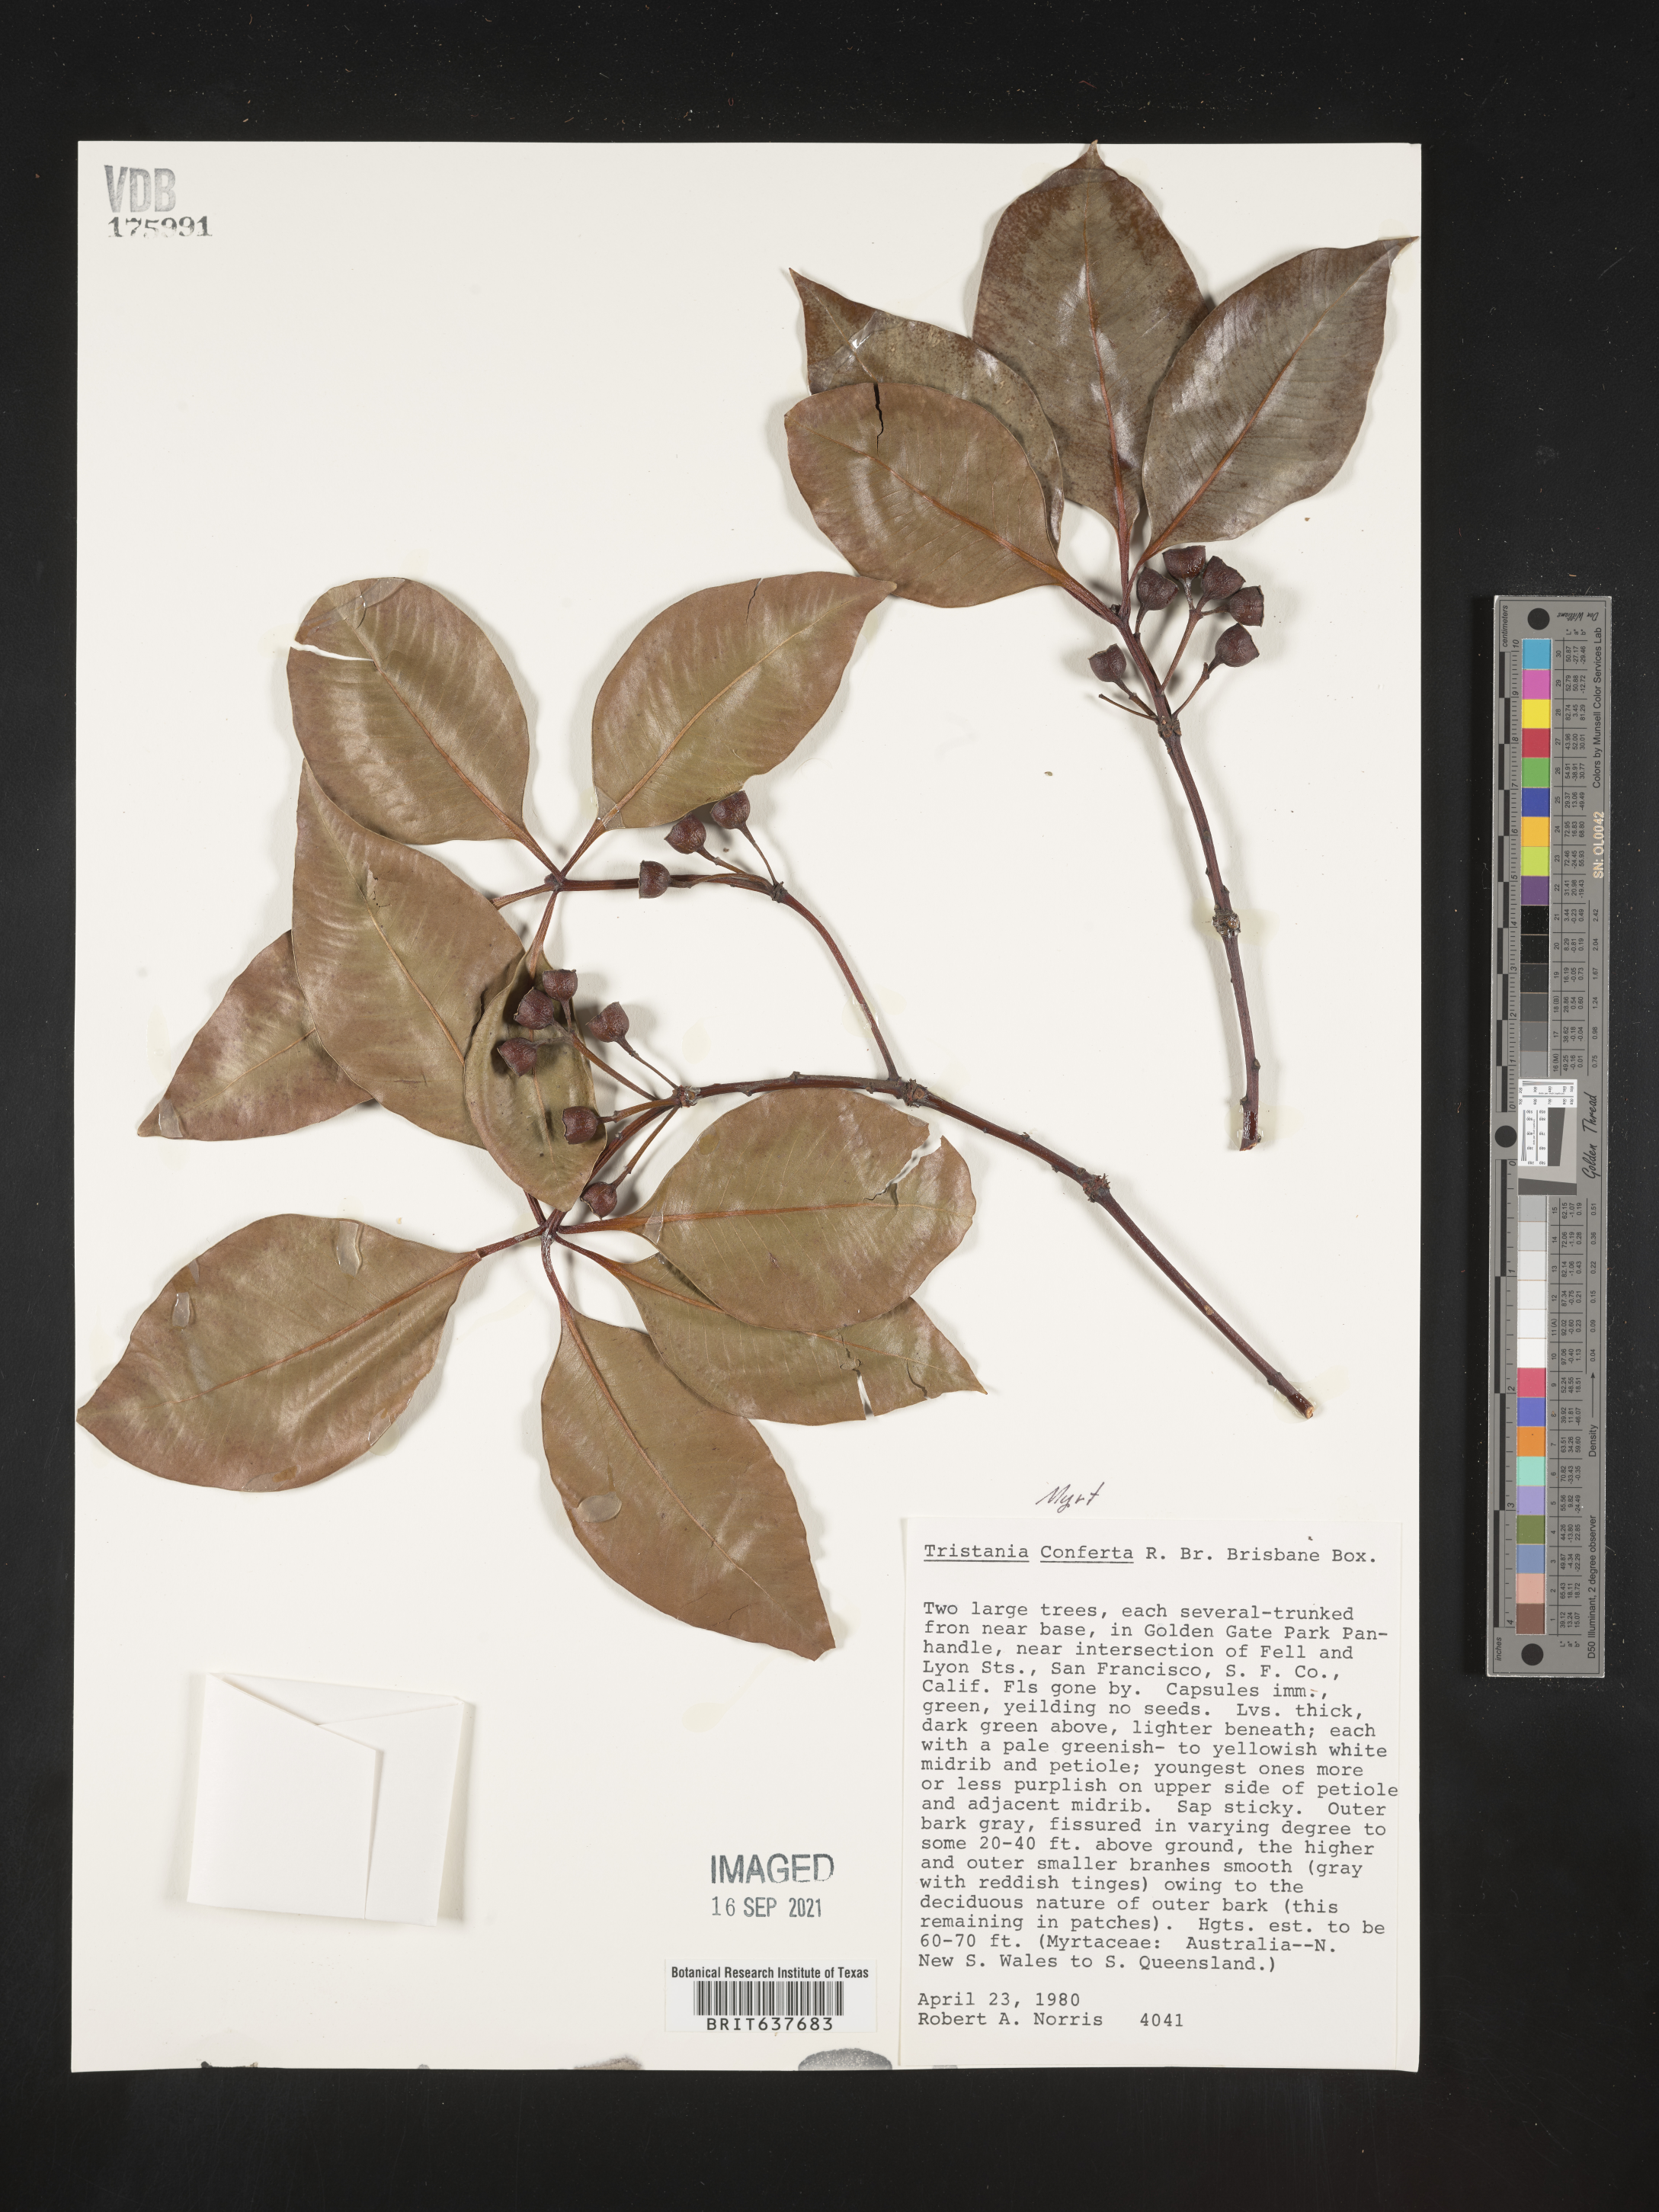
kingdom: Plantae
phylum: Tracheophyta
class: Magnoliopsida
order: Myrtales
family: Myrtaceae
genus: Tristania
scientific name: Tristania
